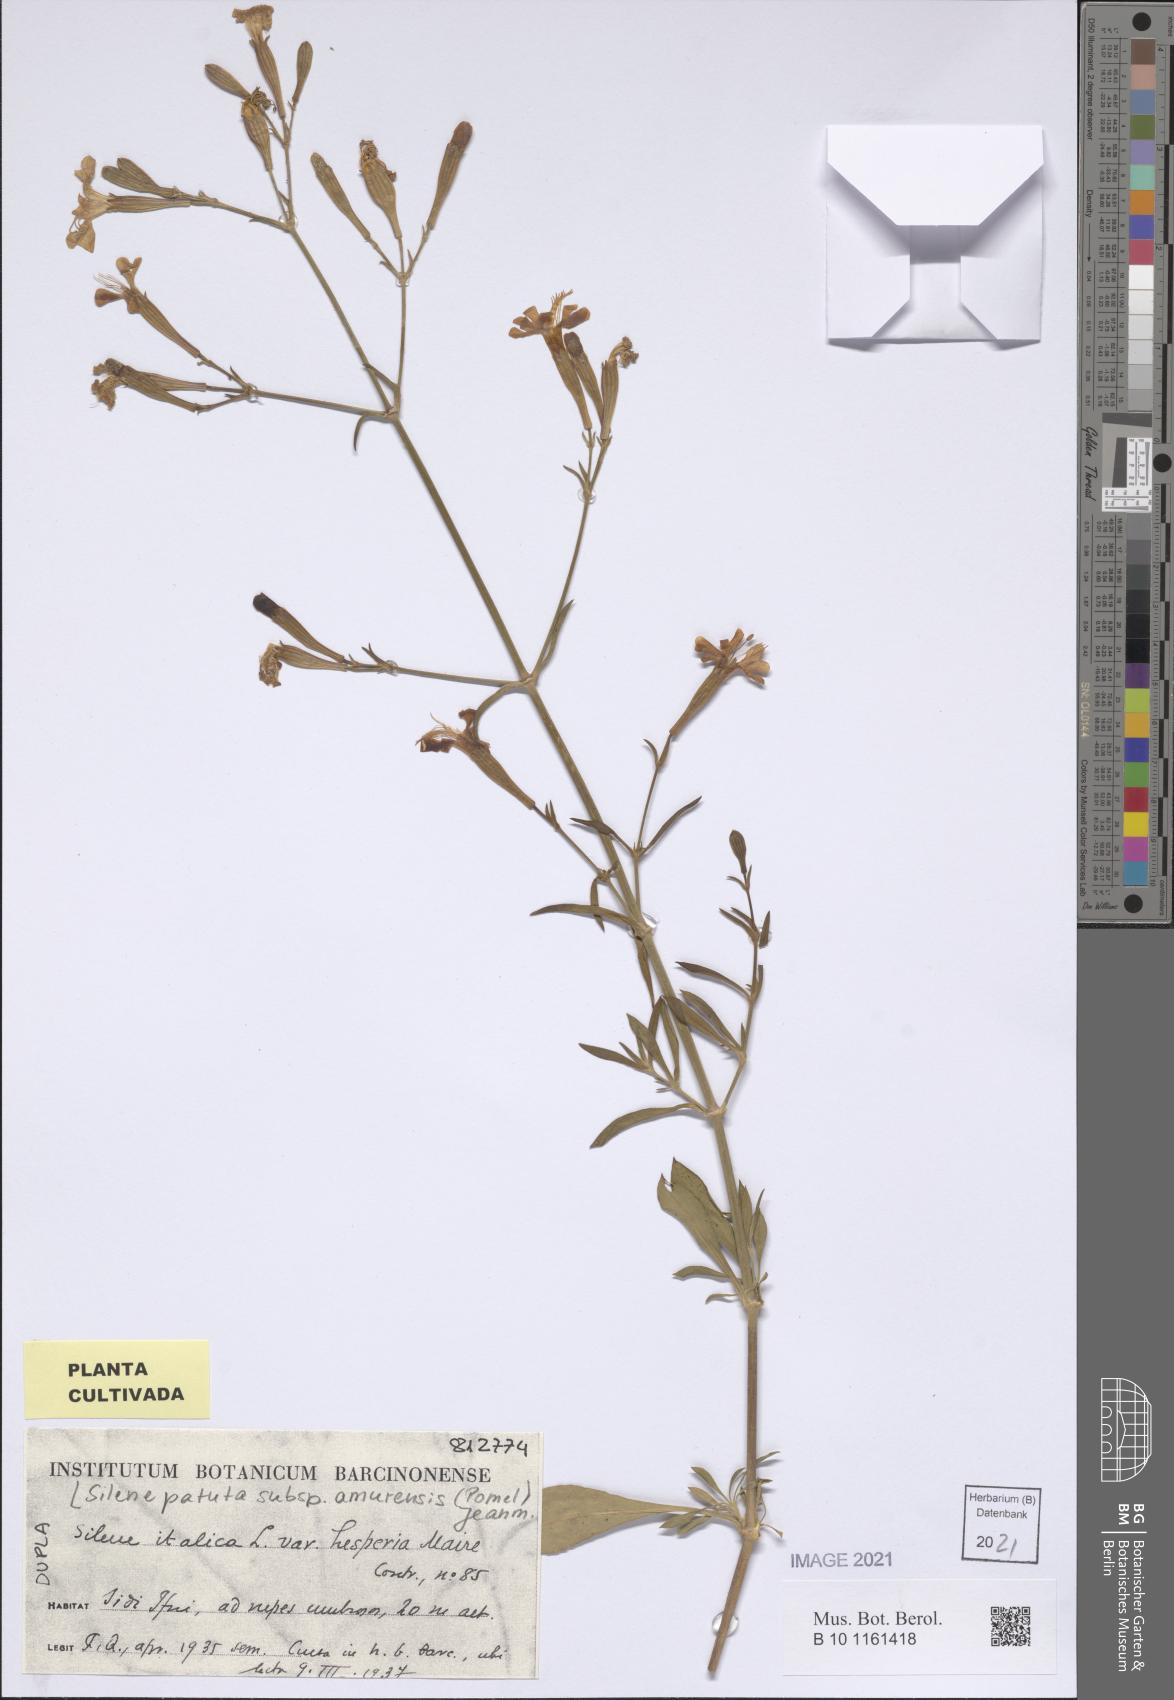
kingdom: Plantae
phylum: Tracheophyta
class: Magnoliopsida
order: Caryophyllales
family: Caryophyllaceae
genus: Silene
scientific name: Silene patula
